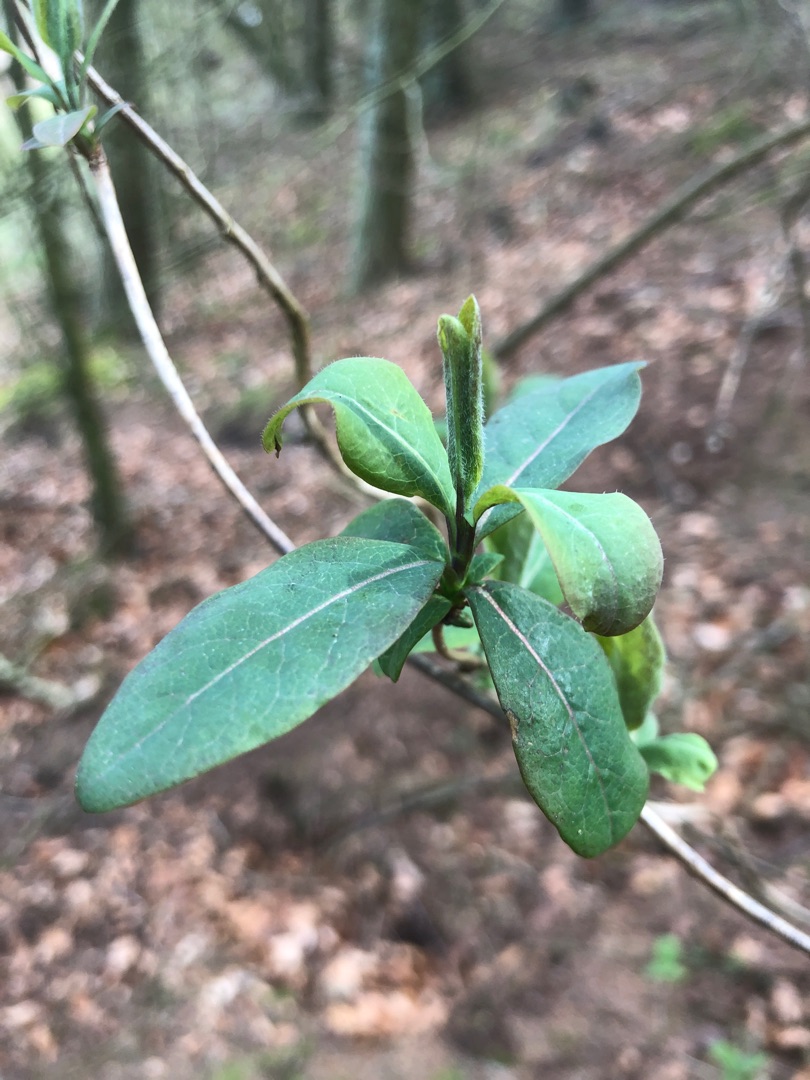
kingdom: Plantae
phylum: Tracheophyta
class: Magnoliopsida
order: Dipsacales
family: Caprifoliaceae
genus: Lonicera
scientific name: Lonicera periclymenum
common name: Almindelig gedeblad
